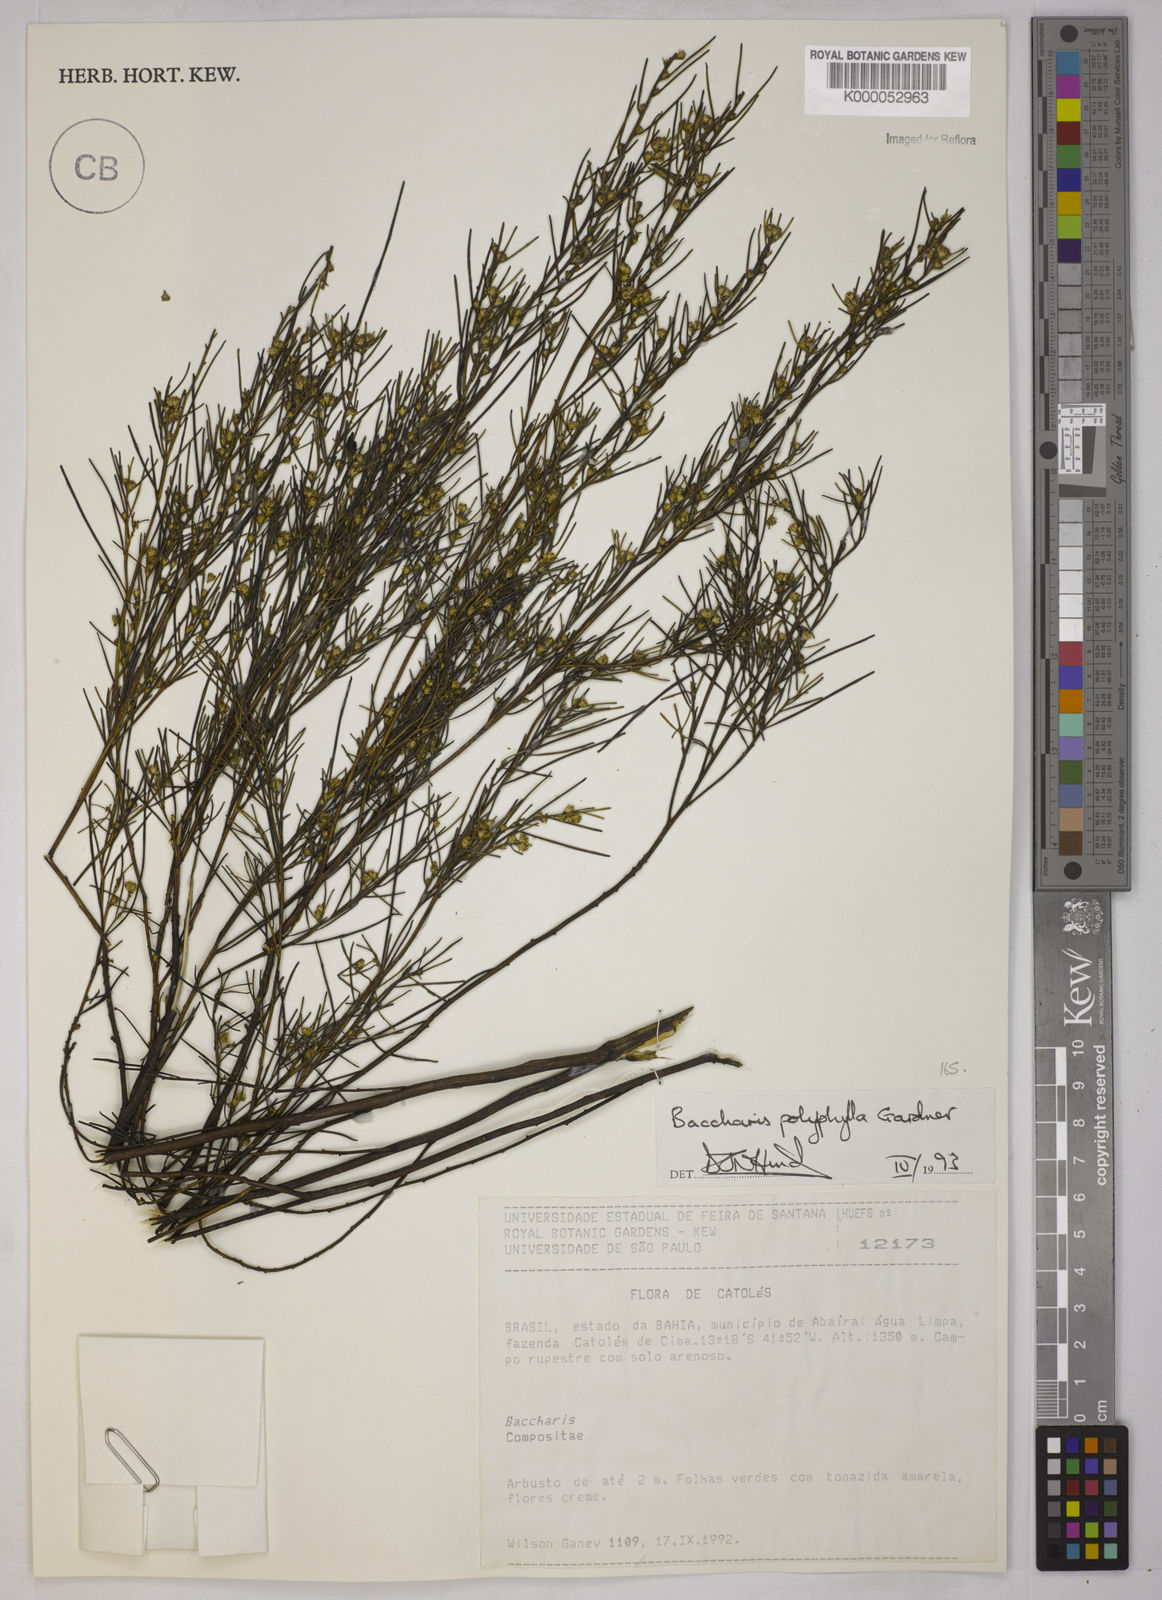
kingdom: Plantae
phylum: Tracheophyta
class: Magnoliopsida
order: Asterales
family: Asteraceae
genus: Baccharis
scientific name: Baccharis polyphylla
